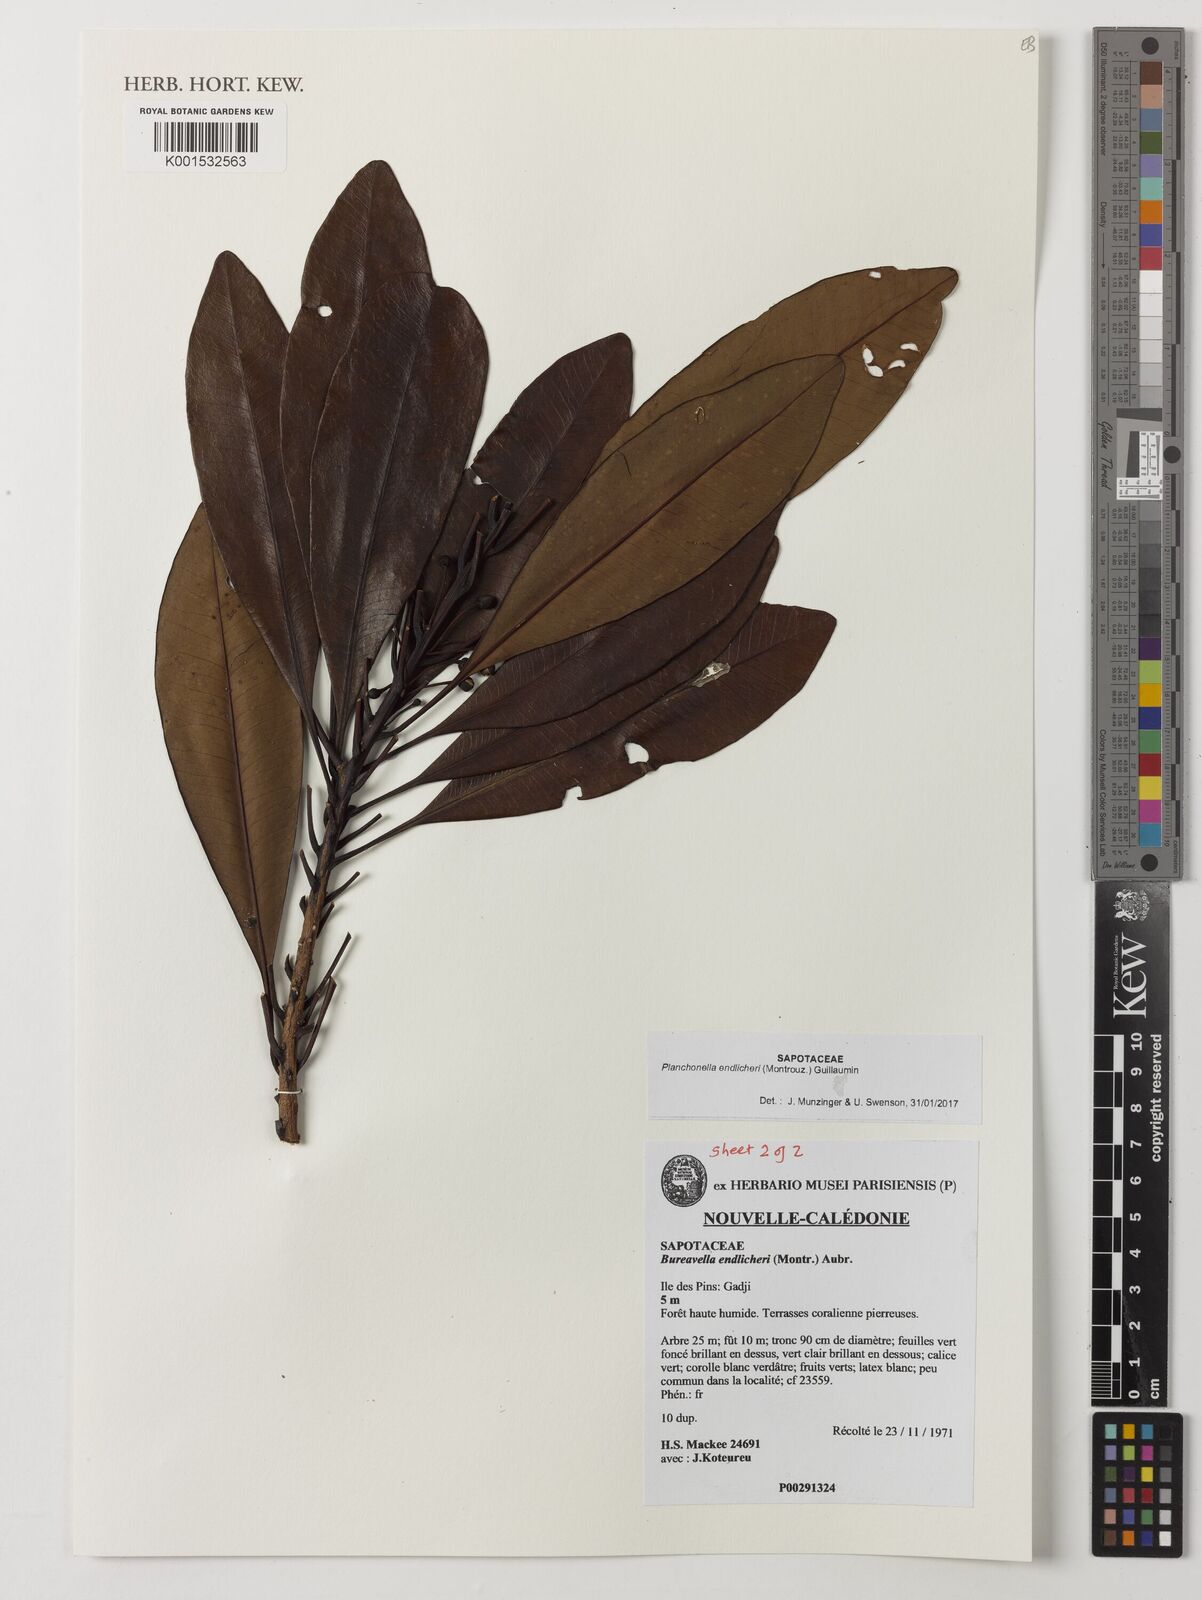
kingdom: Plantae
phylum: Tracheophyta
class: Magnoliopsida
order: Ericales
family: Sapotaceae
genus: Planchonella
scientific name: Planchonella endlicheri
